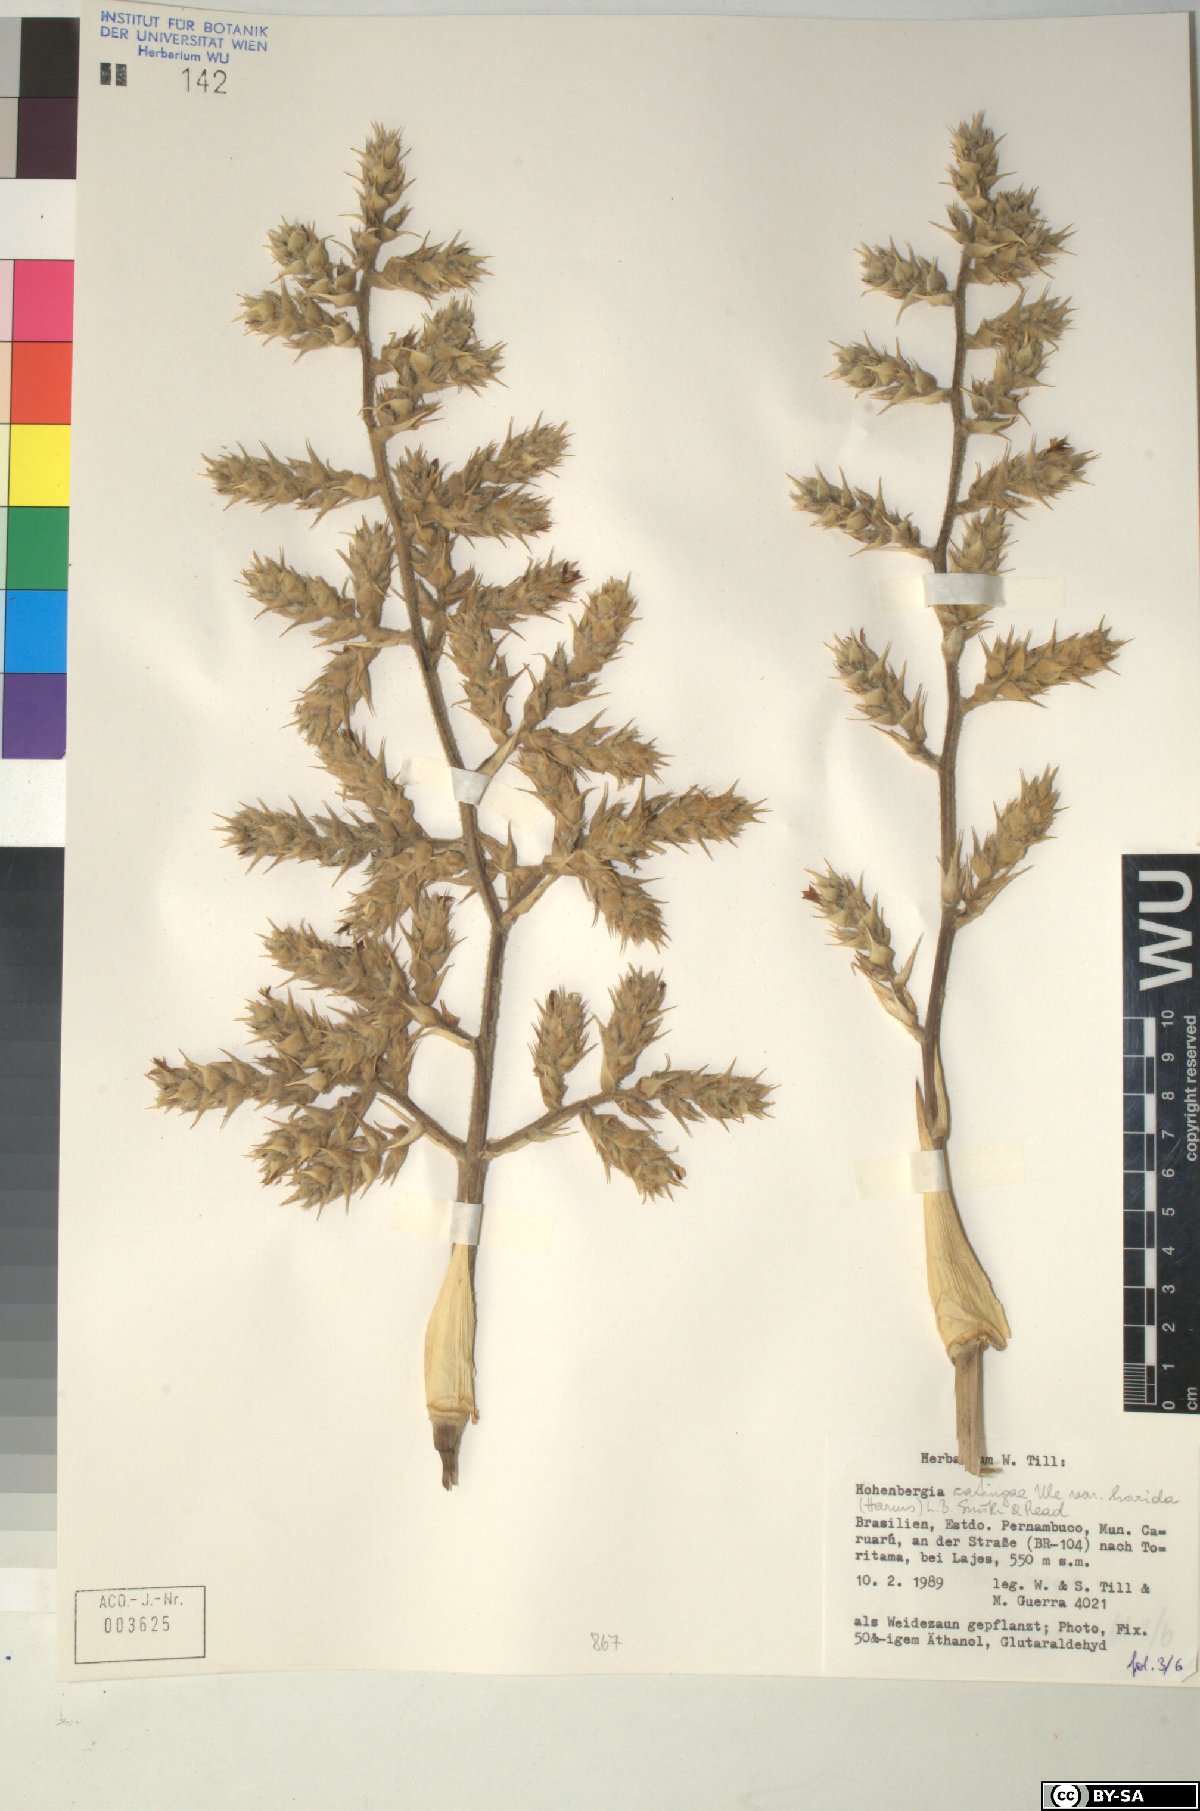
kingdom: Plantae
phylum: Tracheophyta
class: Liliopsida
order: Poales
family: Bromeliaceae
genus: Hohenbergia
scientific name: Hohenbergia
